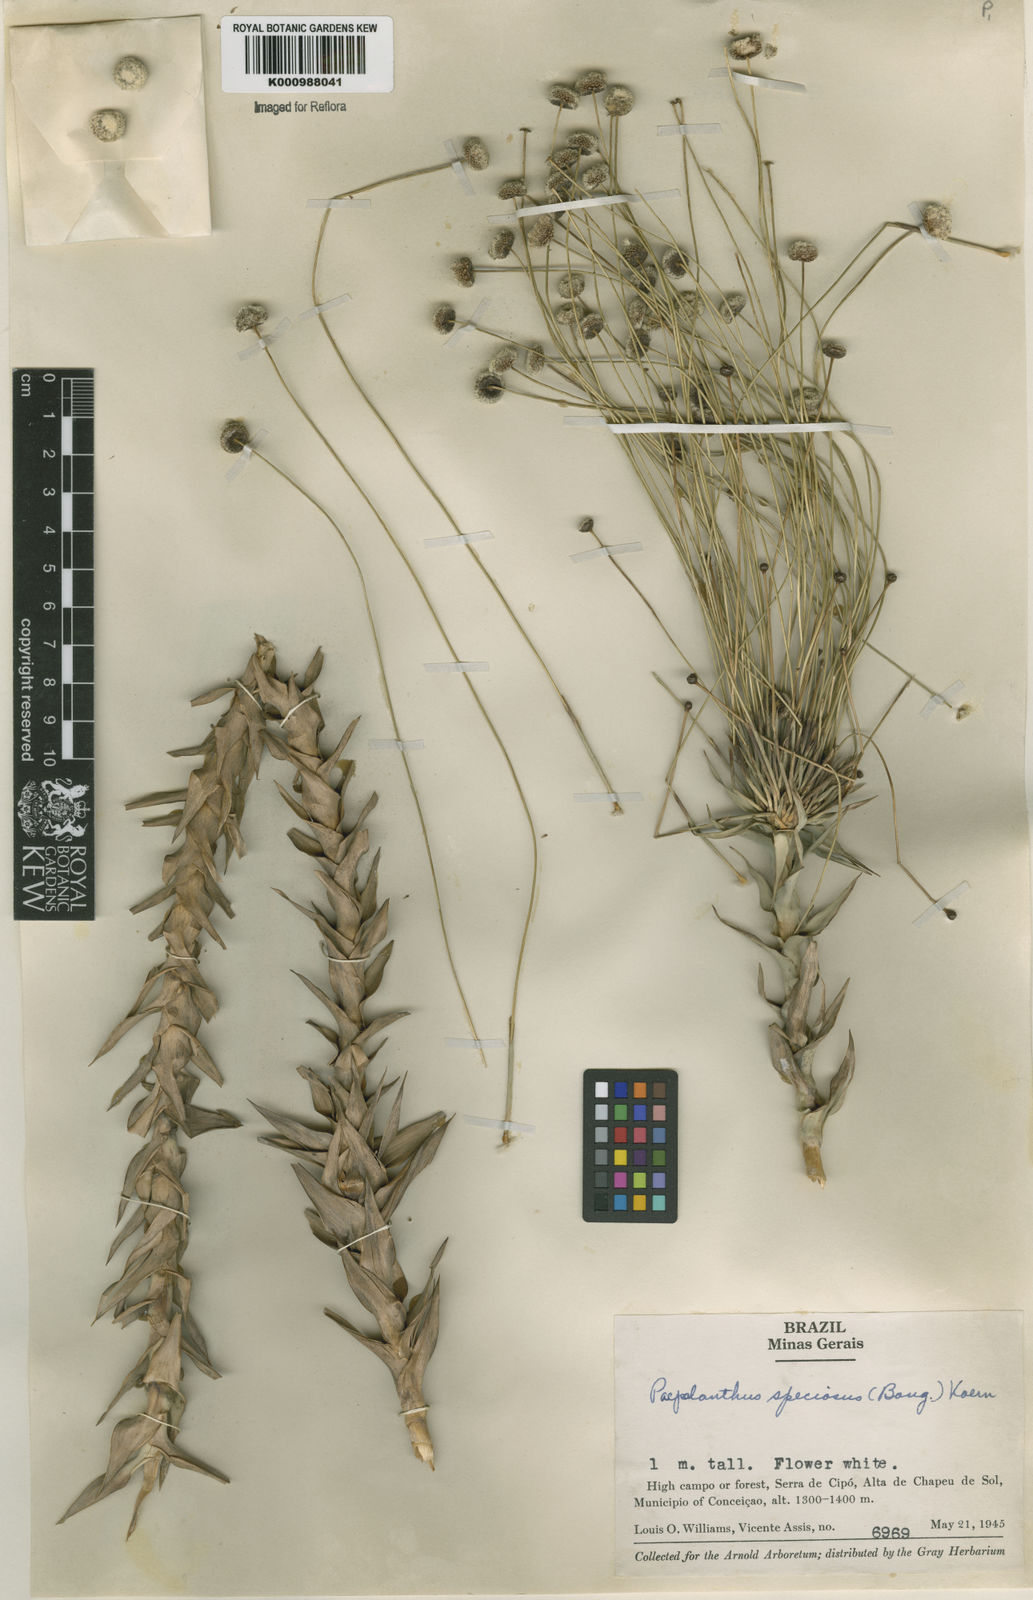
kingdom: Plantae
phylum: Tracheophyta
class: Liliopsida
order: Poales
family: Eriocaulaceae
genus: Paepalanthus
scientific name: Paepalanthus
